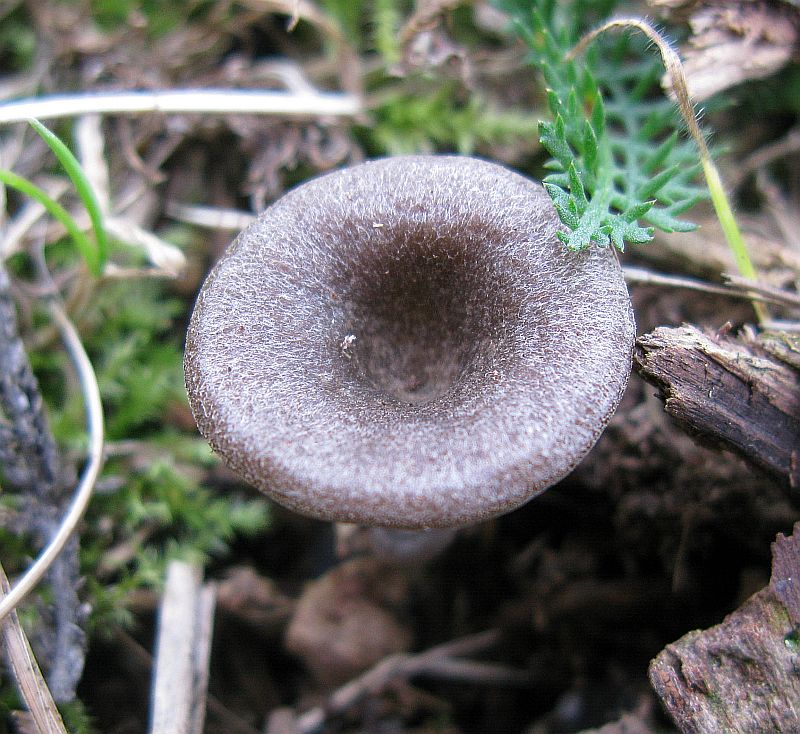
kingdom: Fungi
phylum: Basidiomycota
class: Agaricomycetes
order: Agaricales
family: Entolomataceae
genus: Entoloma
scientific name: Entoloma undatum
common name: bæltet rødblad
